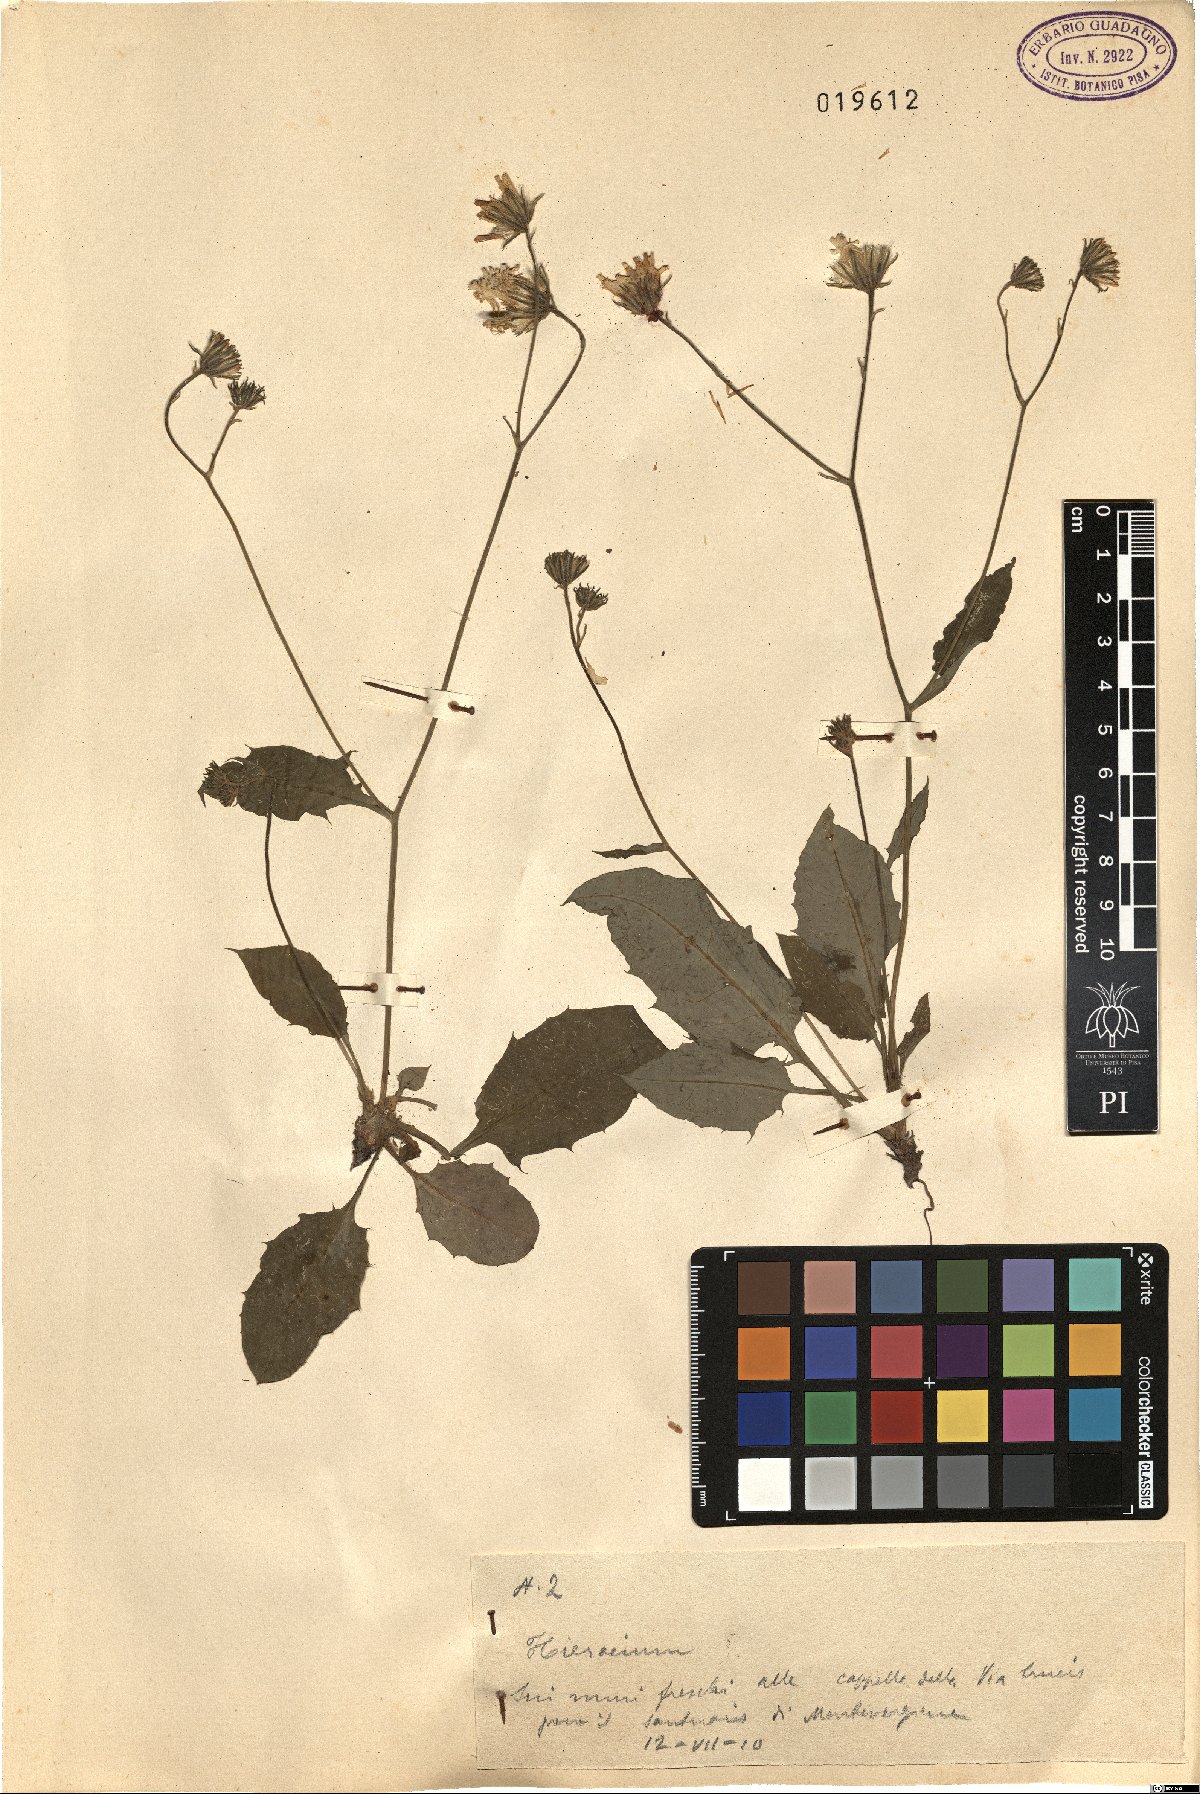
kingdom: Plantae
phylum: Tracheophyta
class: Magnoliopsida
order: Asterales
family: Asteraceae
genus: Hieracium
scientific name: Hieracium
